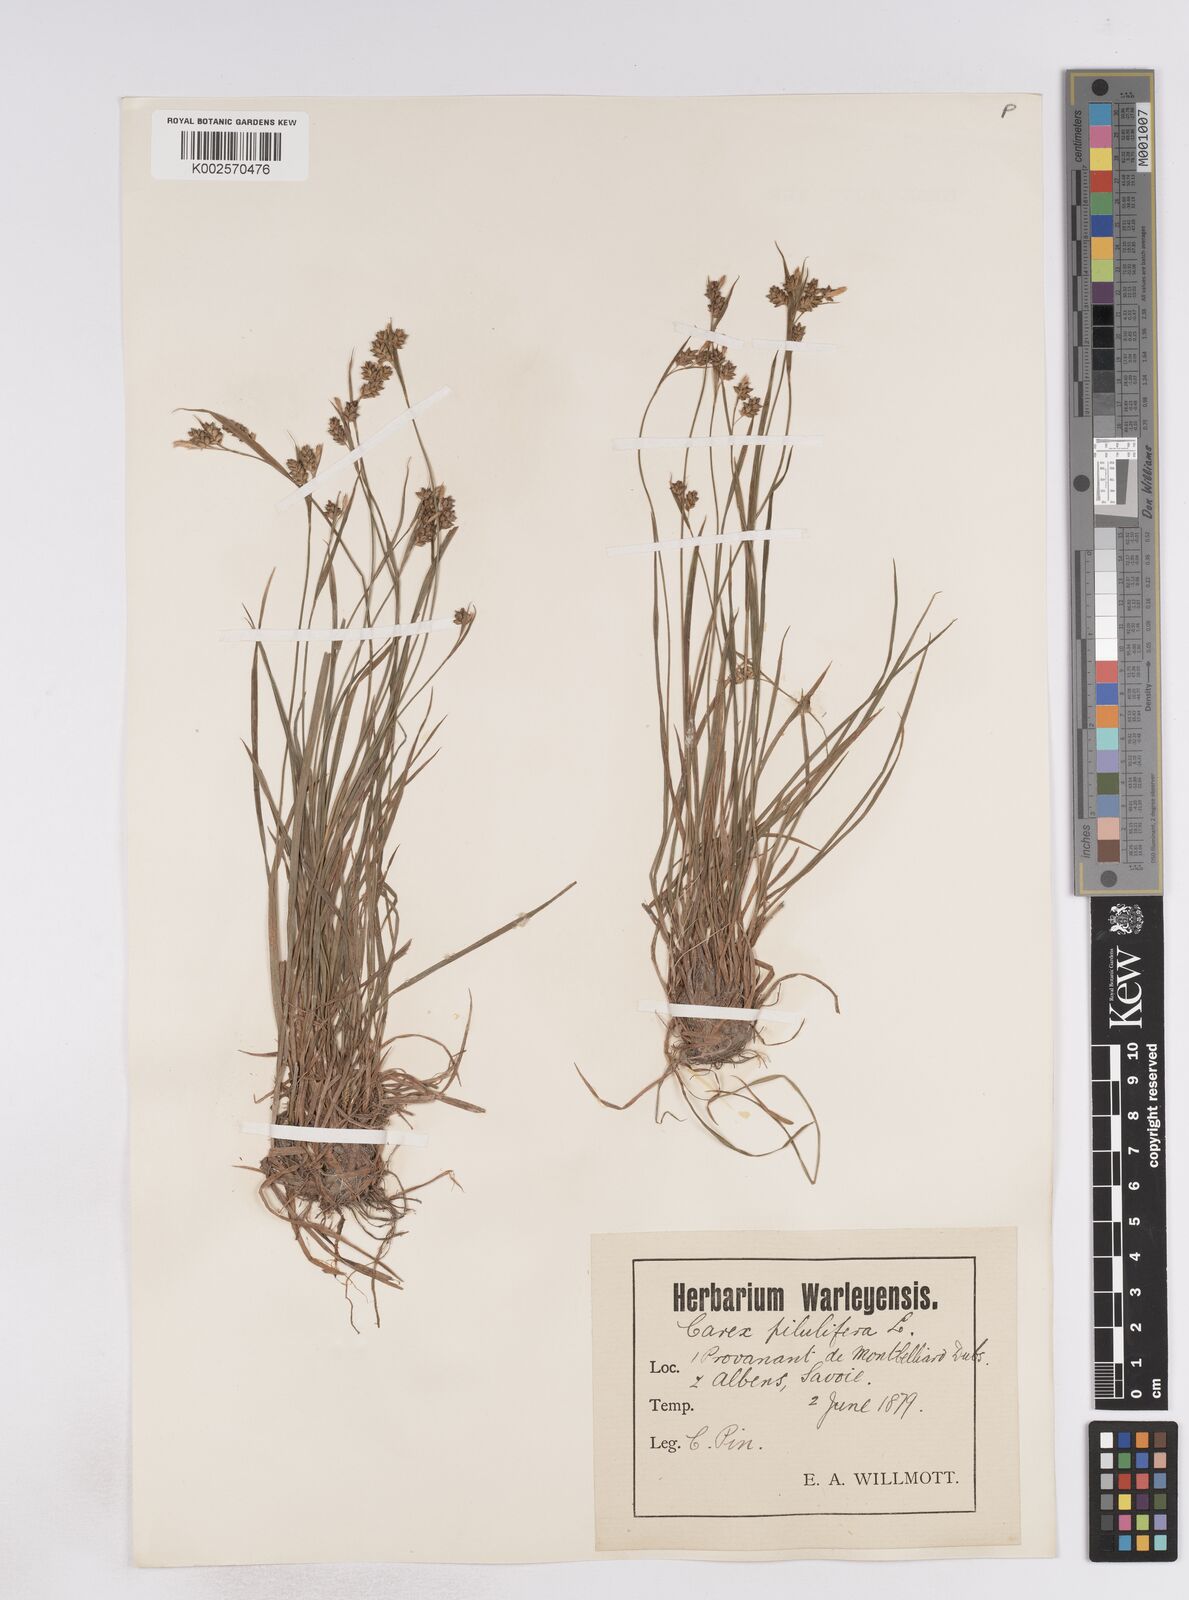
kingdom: Plantae
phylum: Tracheophyta
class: Liliopsida
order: Poales
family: Cyperaceae
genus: Carex
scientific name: Carex pallescens
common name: Pale sedge
